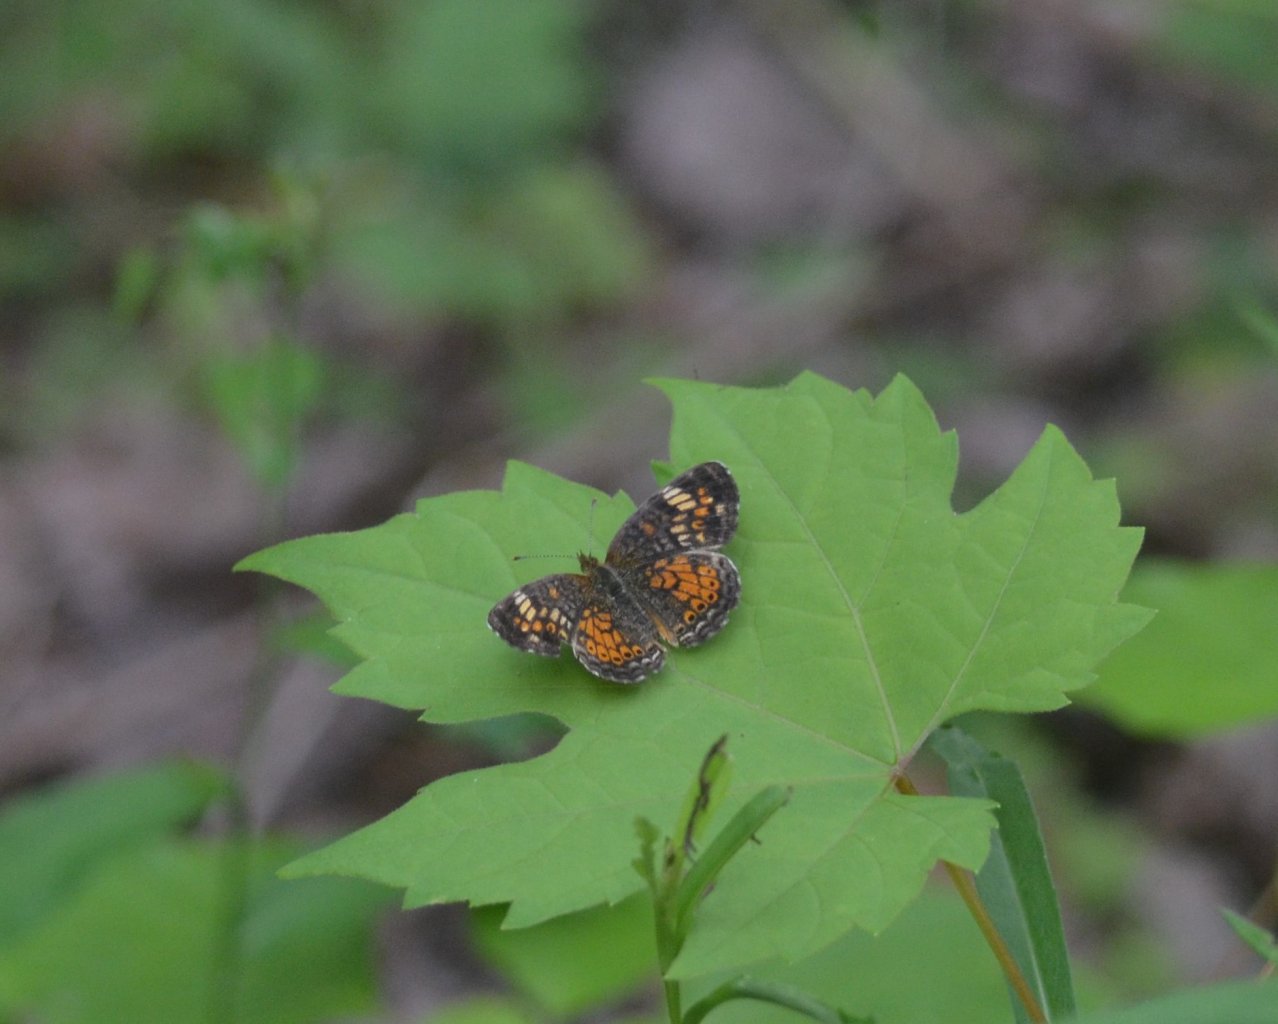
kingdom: Animalia
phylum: Arthropoda
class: Insecta
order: Lepidoptera
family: Nymphalidae
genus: Phyciodes
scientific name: Phyciodes
